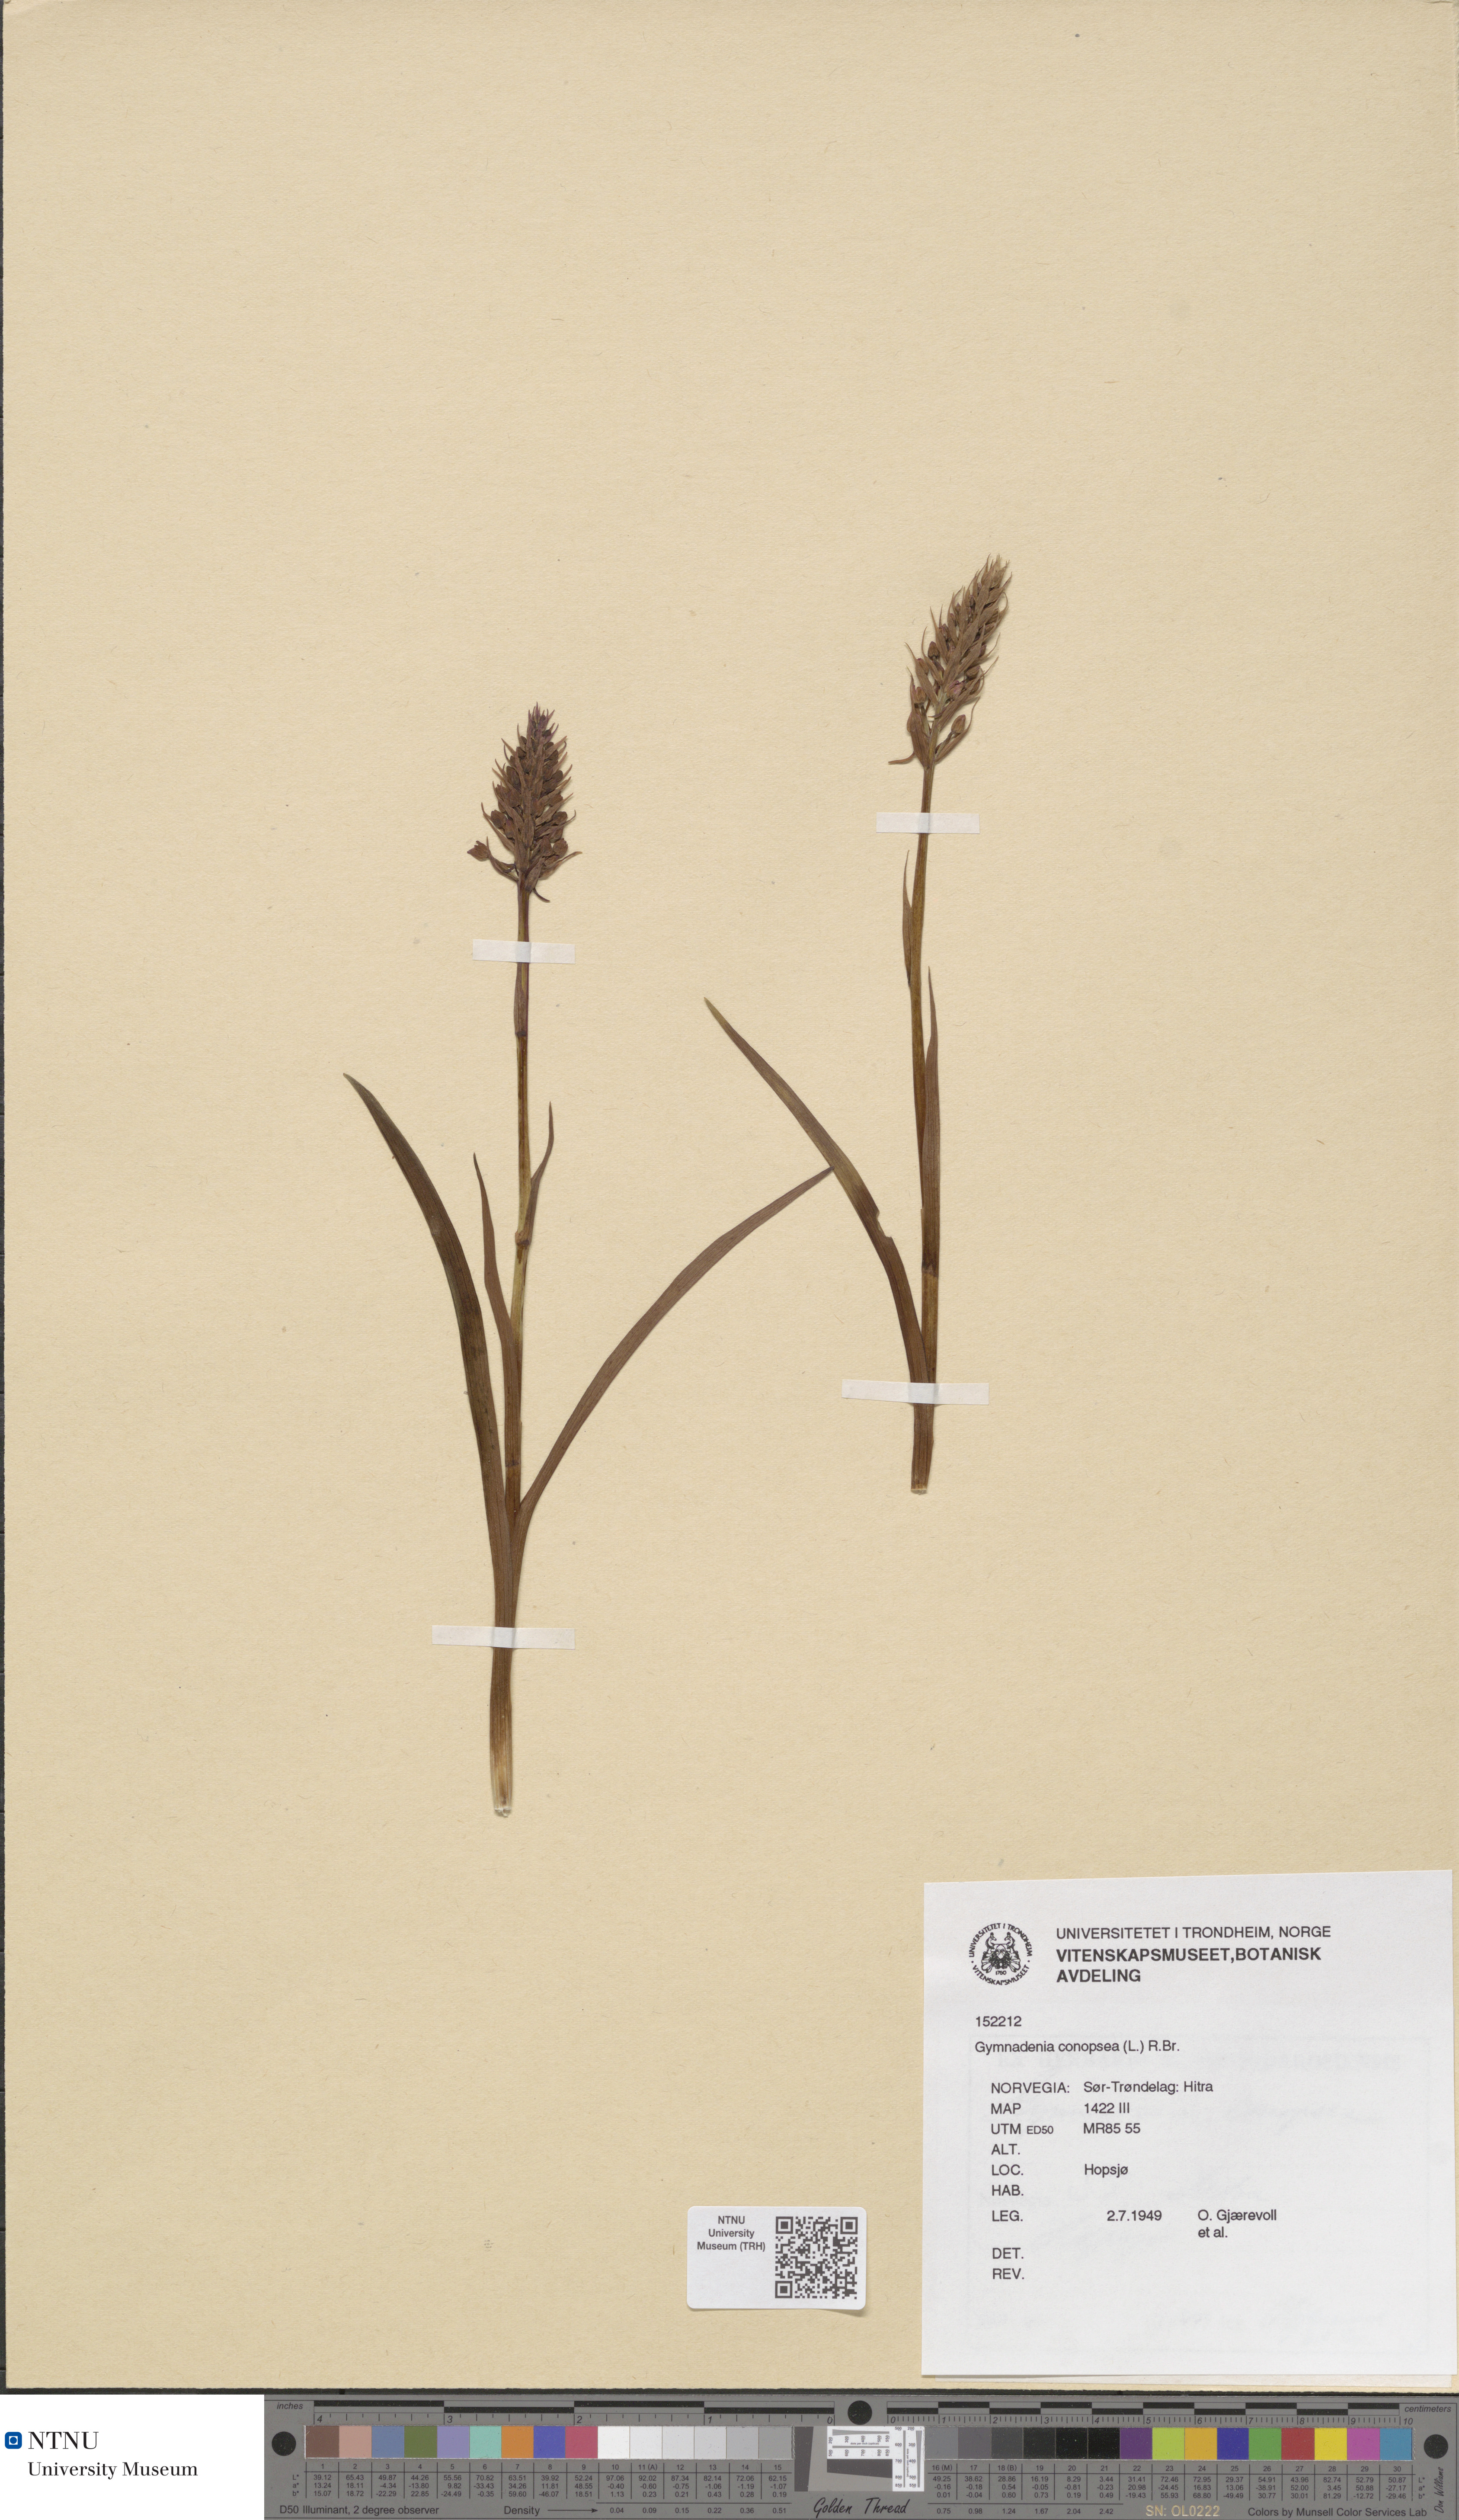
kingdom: Plantae
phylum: Tracheophyta
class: Liliopsida
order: Asparagales
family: Orchidaceae
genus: Gymnadenia
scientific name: Gymnadenia conopsea
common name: Fragrant orchid
